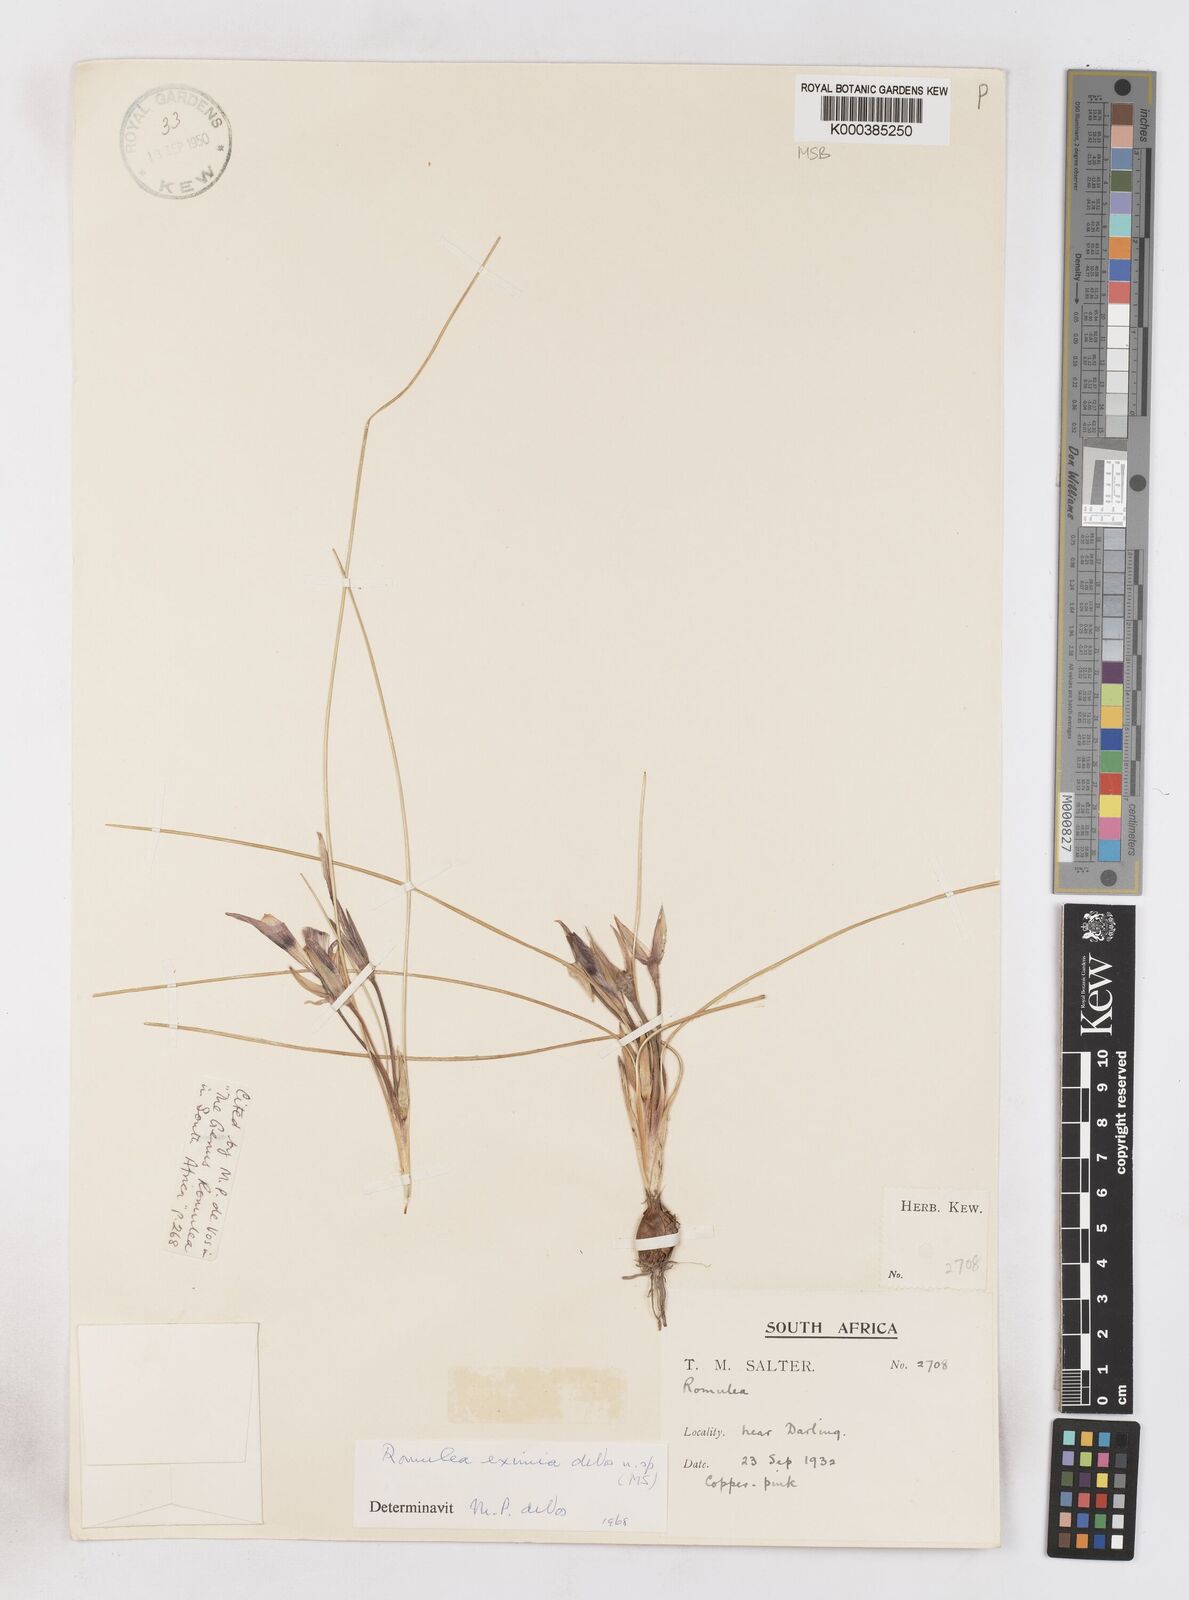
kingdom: Plantae
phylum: Tracheophyta
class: Liliopsida
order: Asparagales
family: Iridaceae
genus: Romulea
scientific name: Romulea eximia
